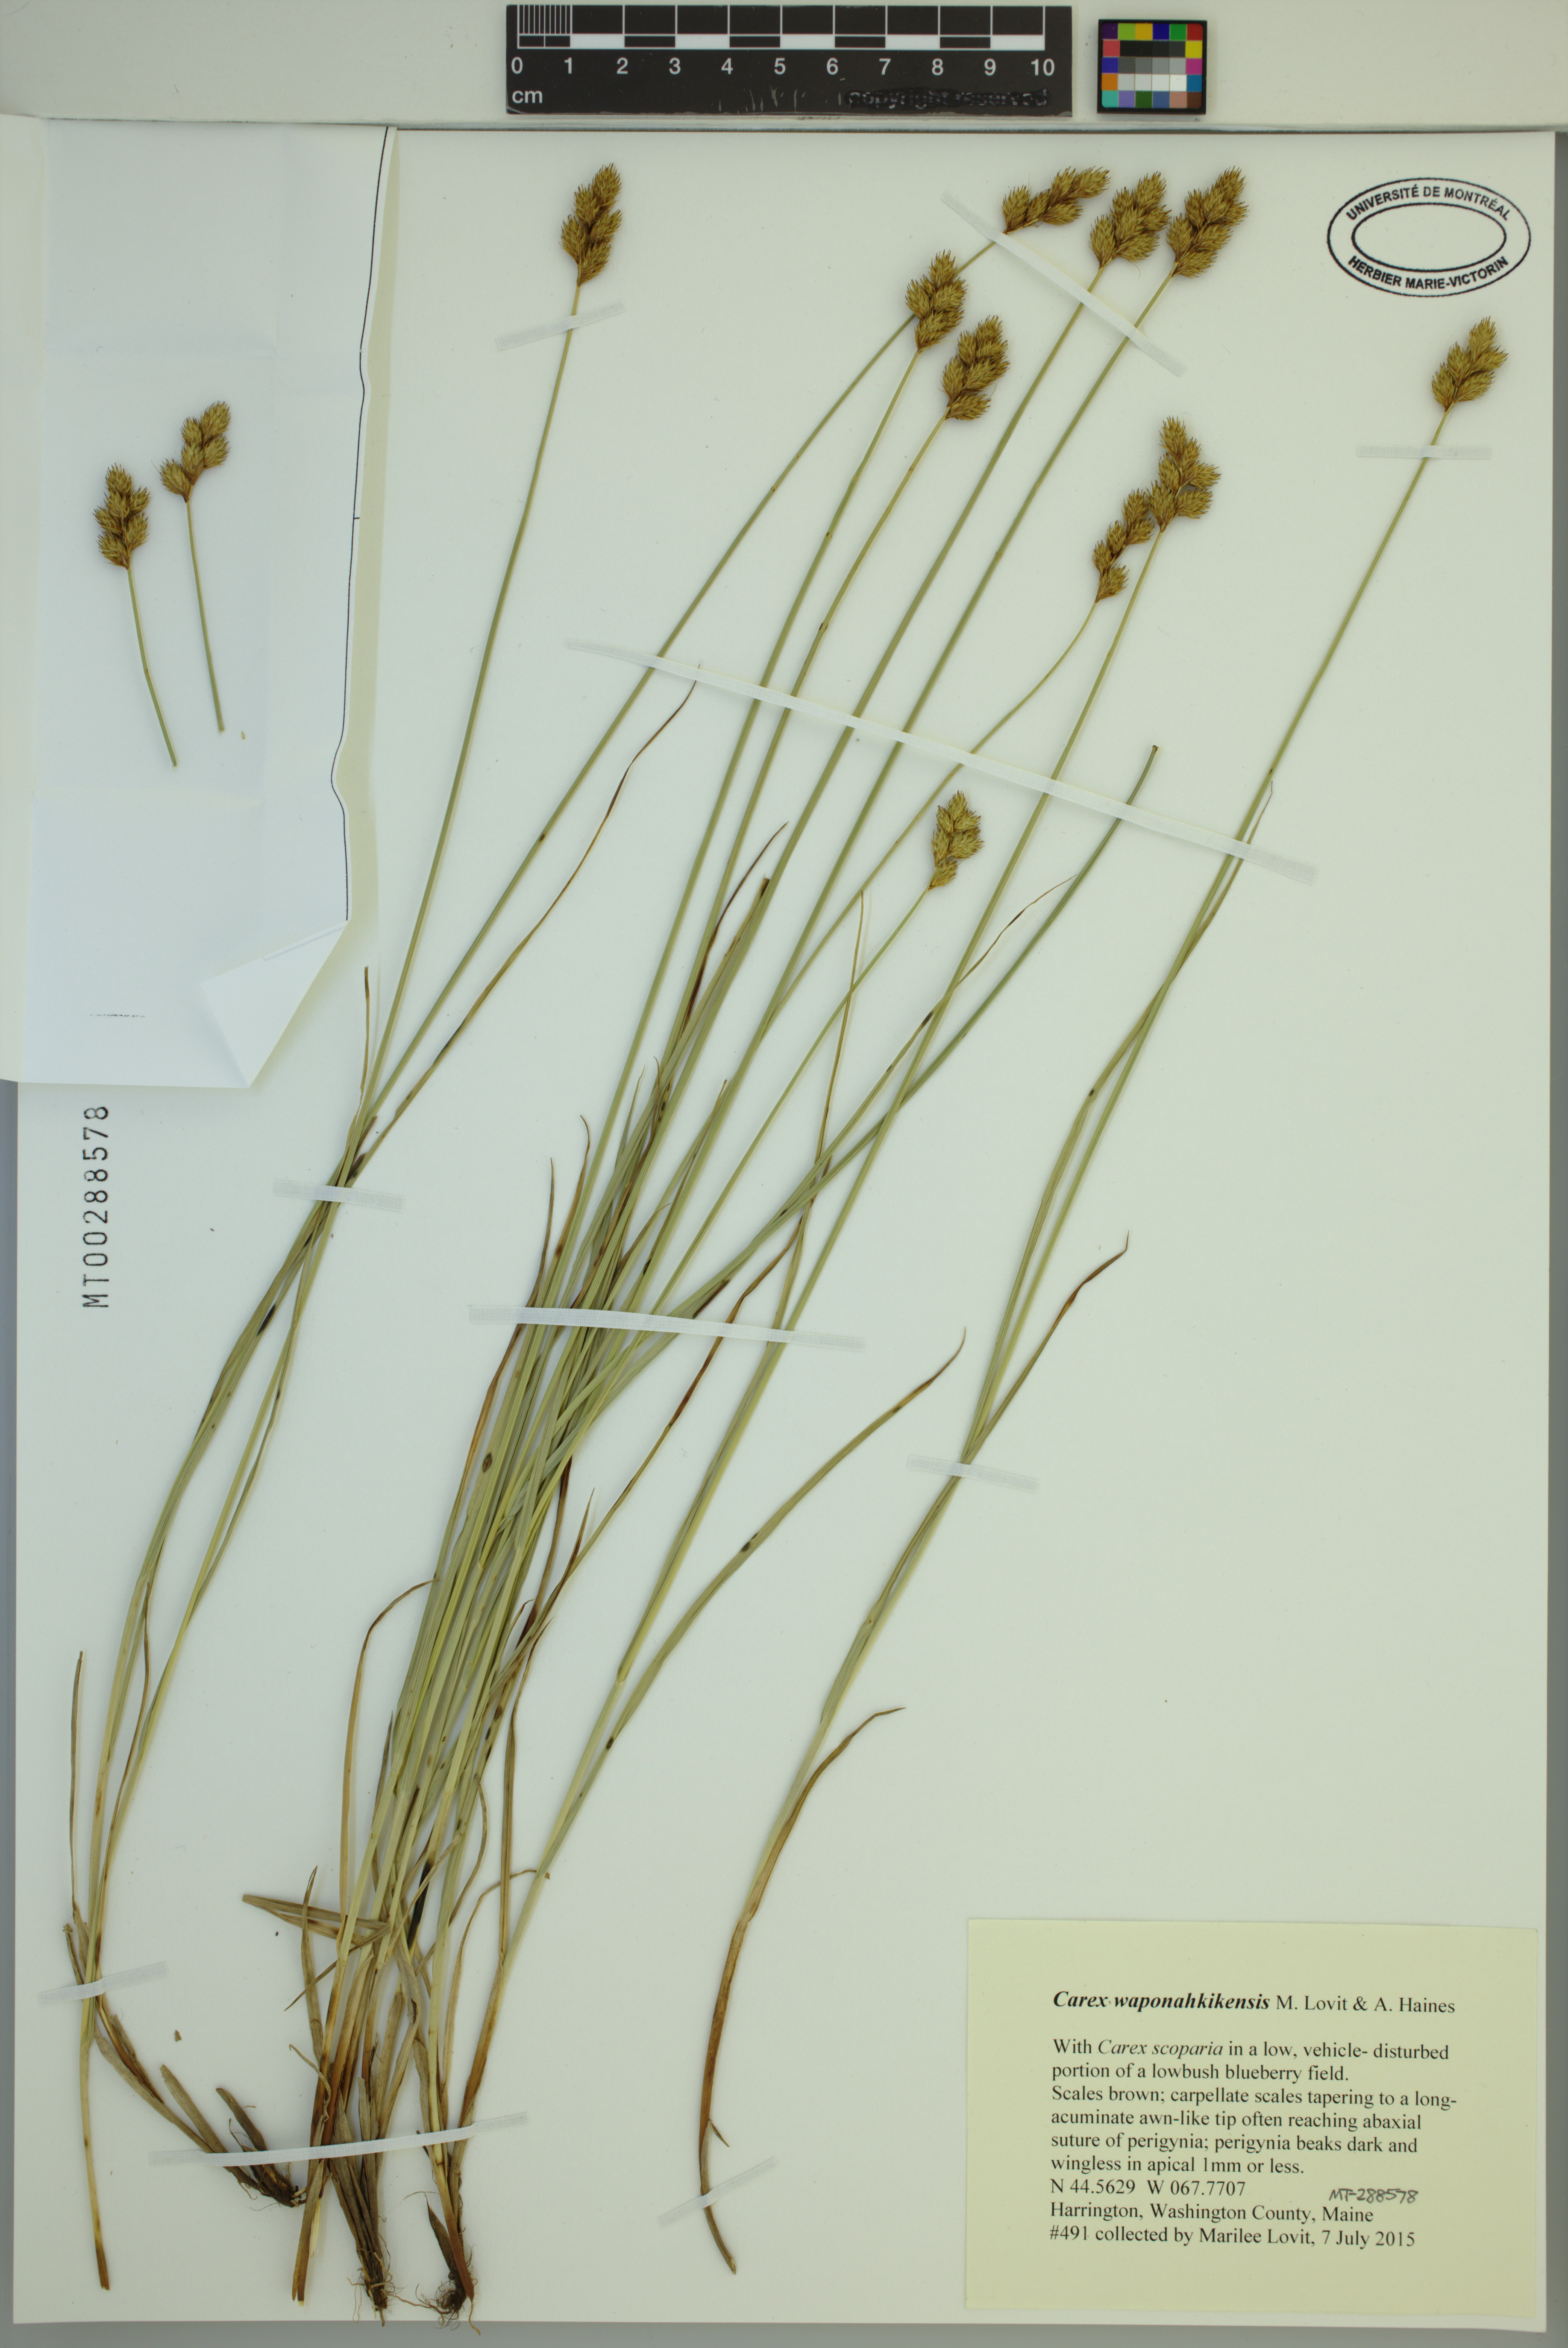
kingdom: Plantae
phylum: Tracheophyta
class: Liliopsida
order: Poales
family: Cyperaceae
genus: Carex
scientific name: Carex waponahkikensis
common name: Dawn-land sedge
